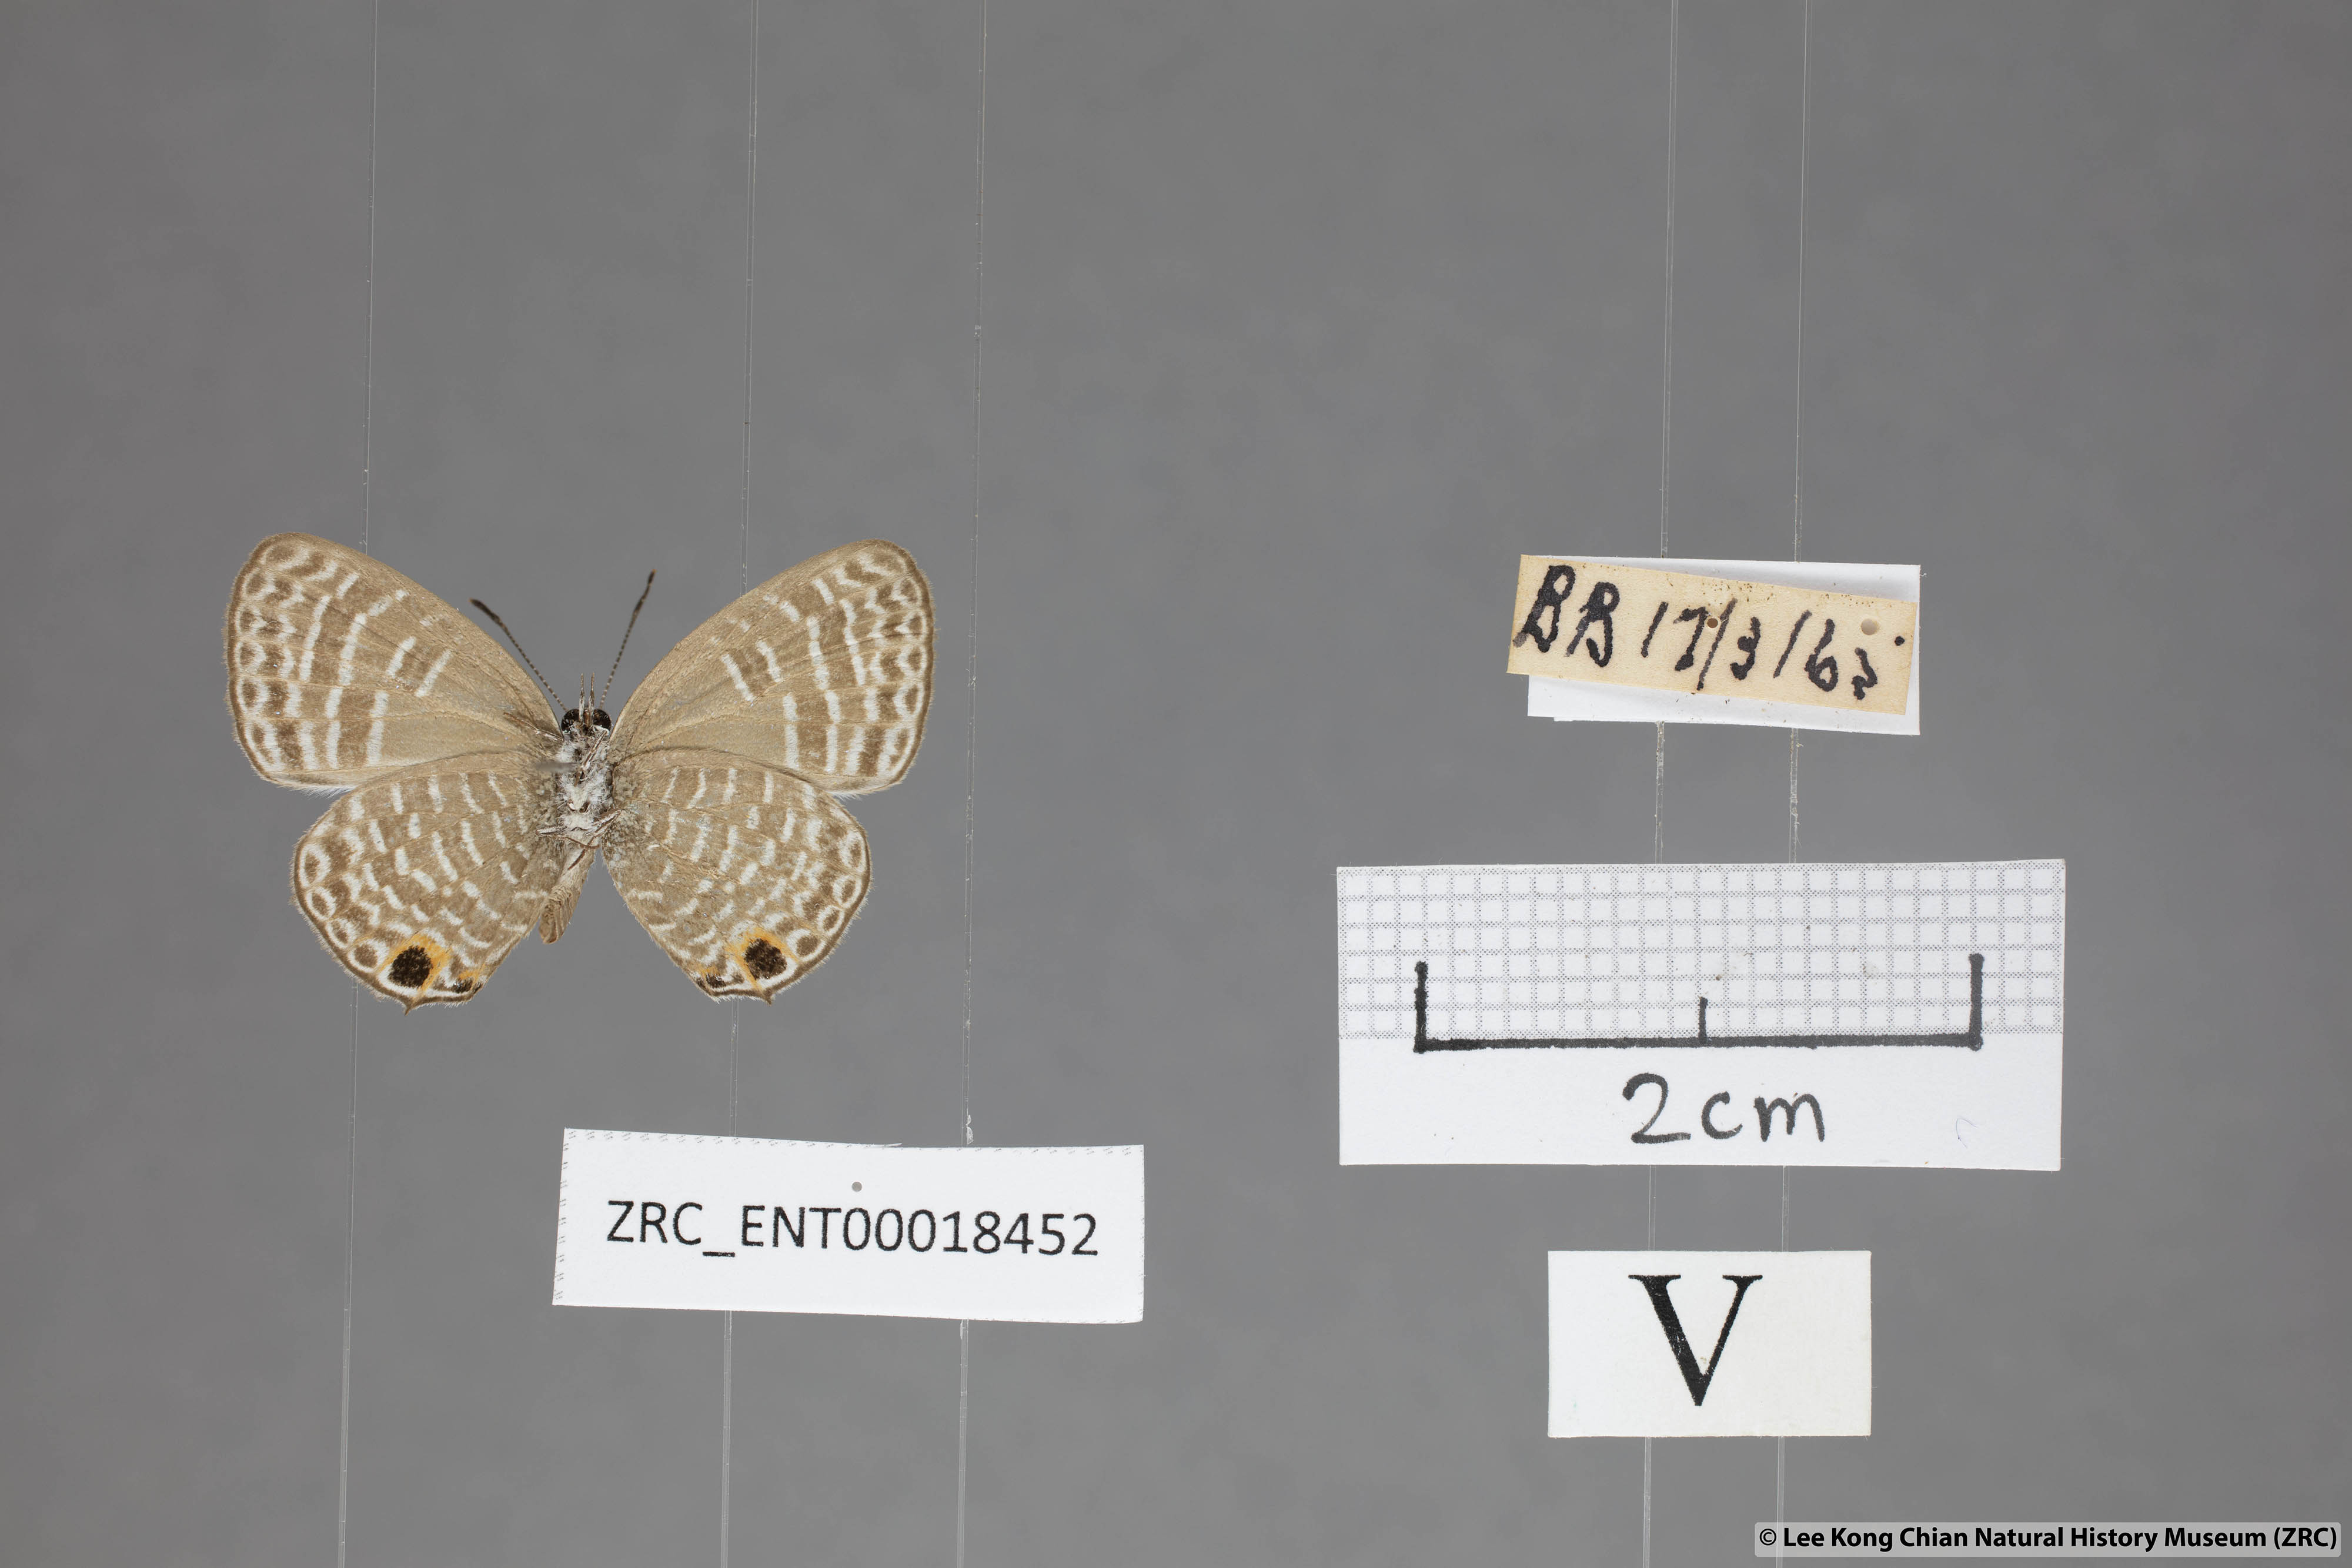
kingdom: Animalia
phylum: Arthropoda
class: Insecta
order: Lepidoptera
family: Lycaenidae
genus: Nacaduba
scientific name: Nacaduba sanaya
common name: Jewel fourline blue
